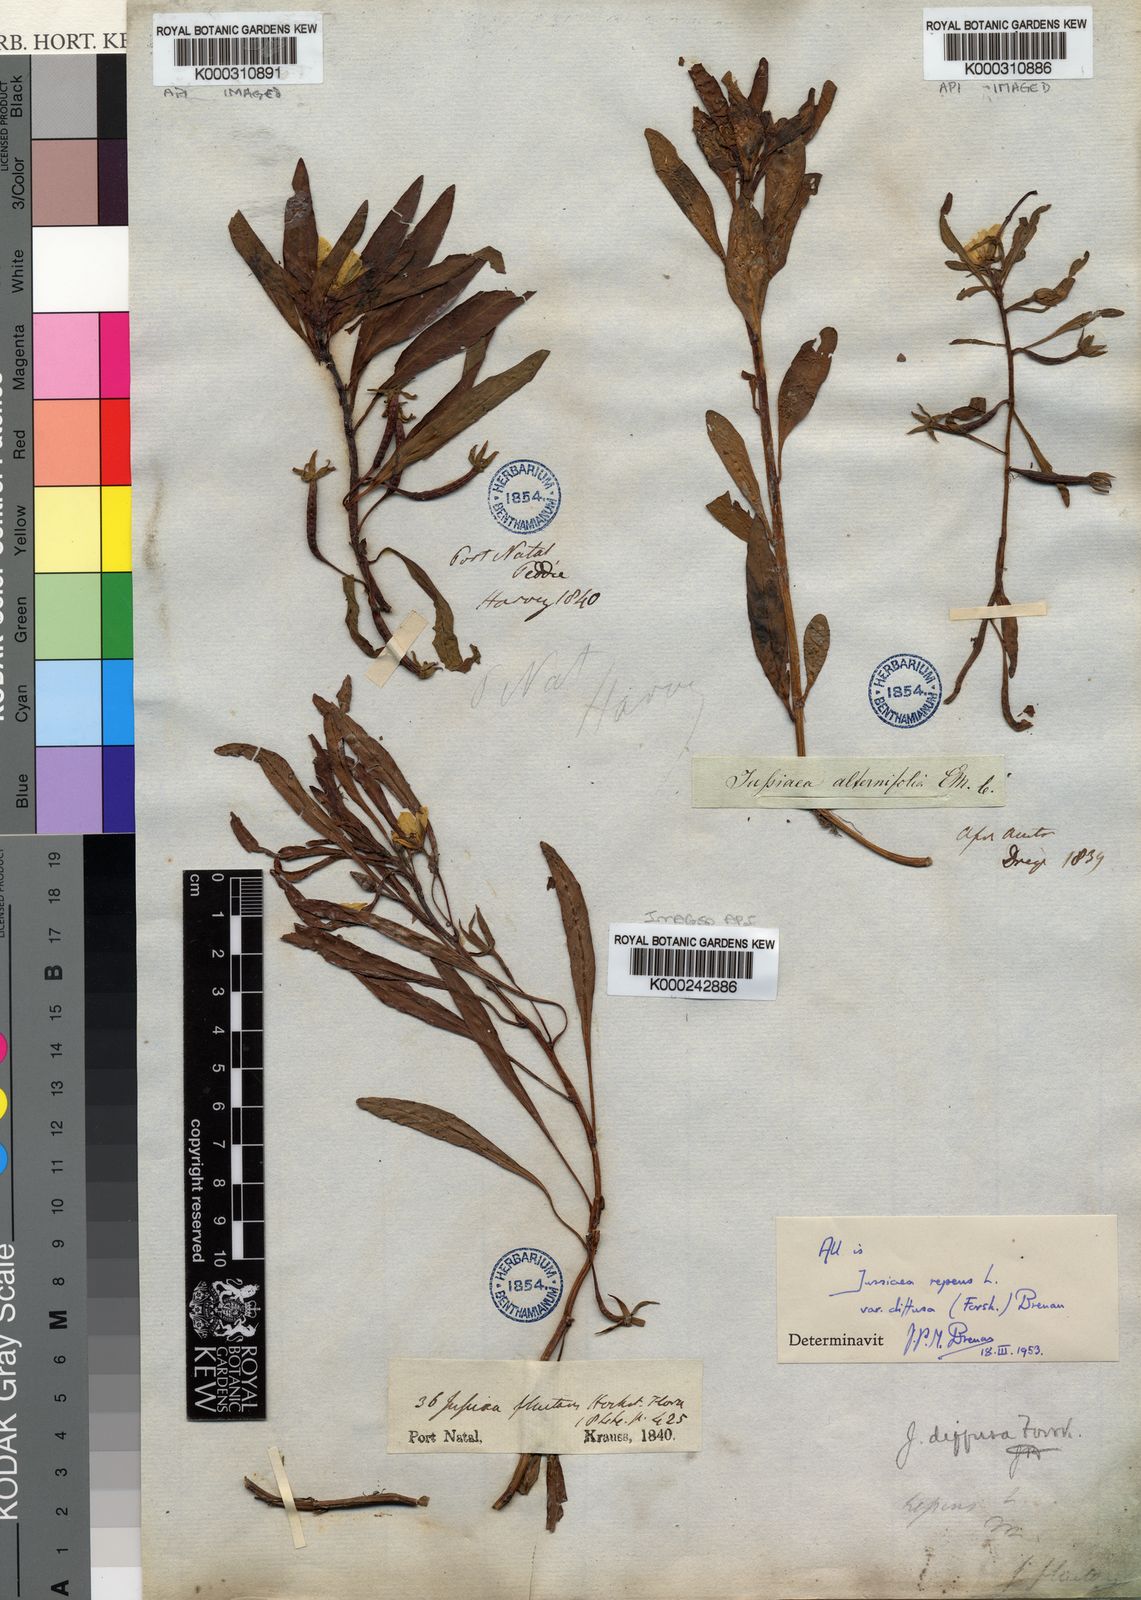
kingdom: Plantae
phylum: Tracheophyta
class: Magnoliopsida
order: Myrtales
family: Onagraceae
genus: Ludwigia
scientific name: Ludwigia adscendens
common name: Creeping water primrose
